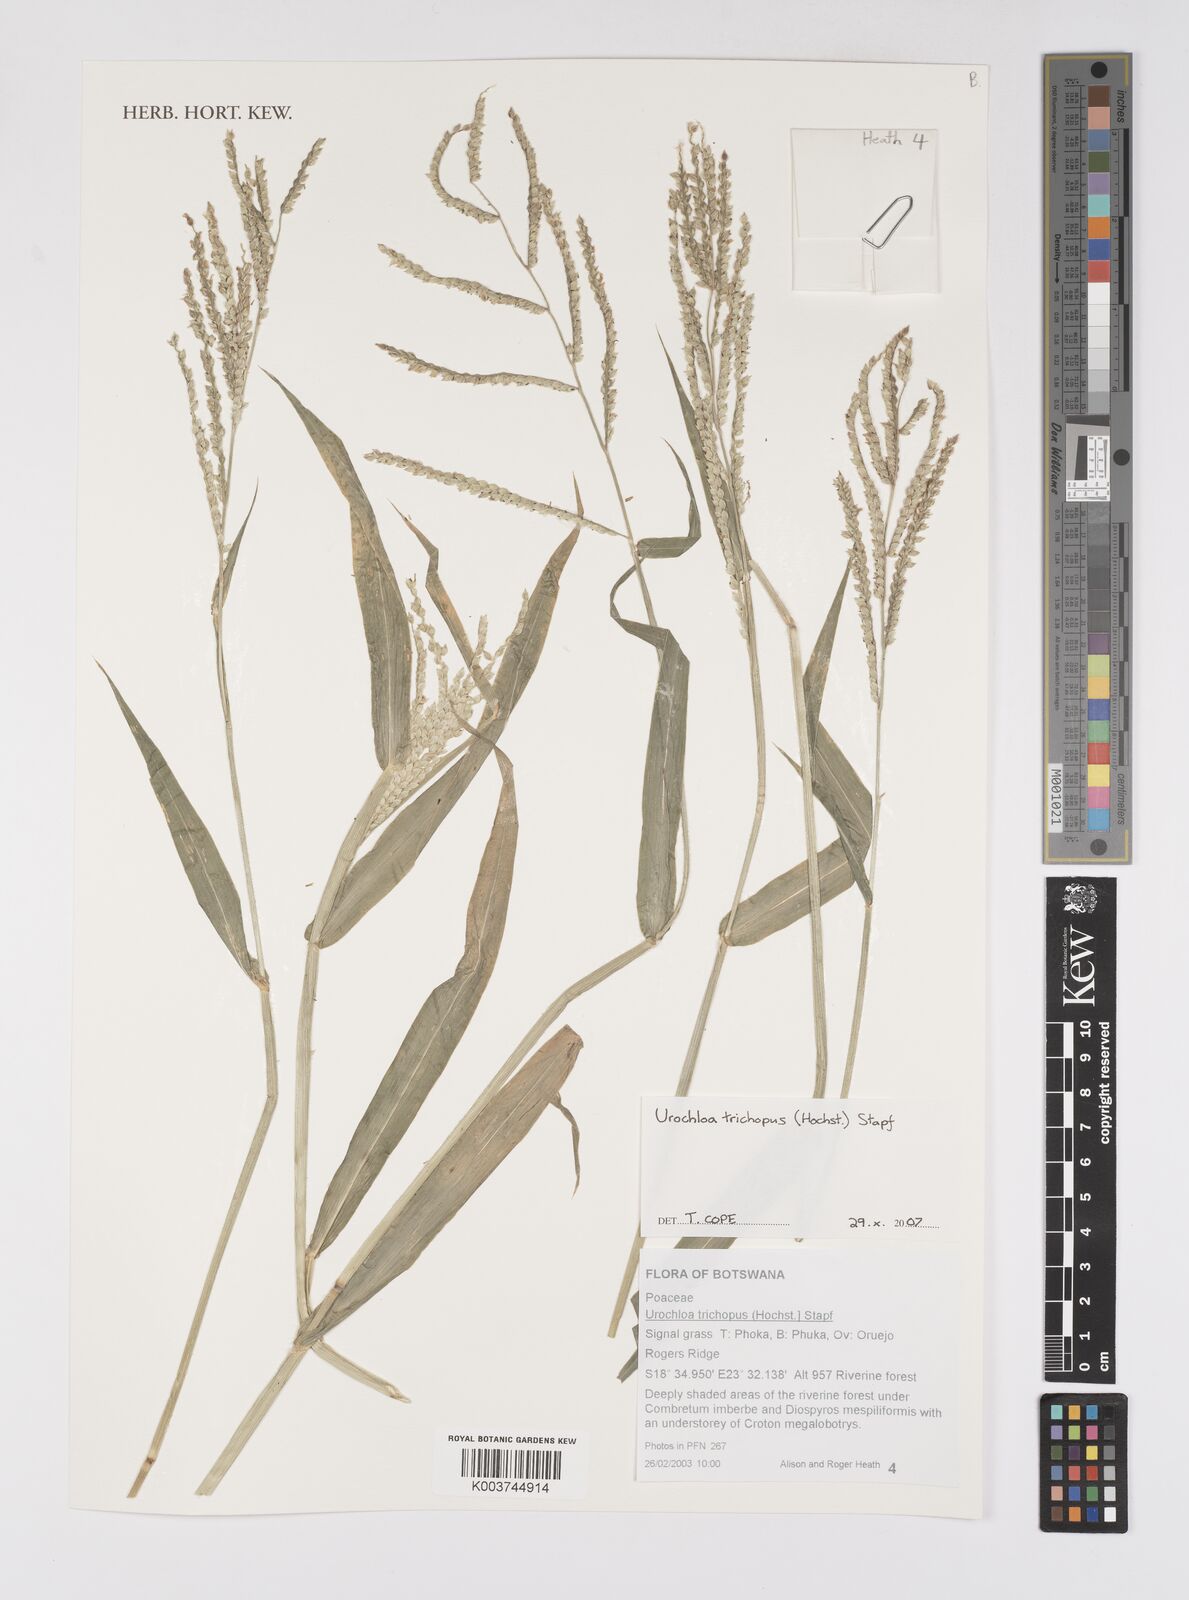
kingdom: Plantae
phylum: Tracheophyta
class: Liliopsida
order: Poales
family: Poaceae
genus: Urochloa
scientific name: Urochloa trichopus
